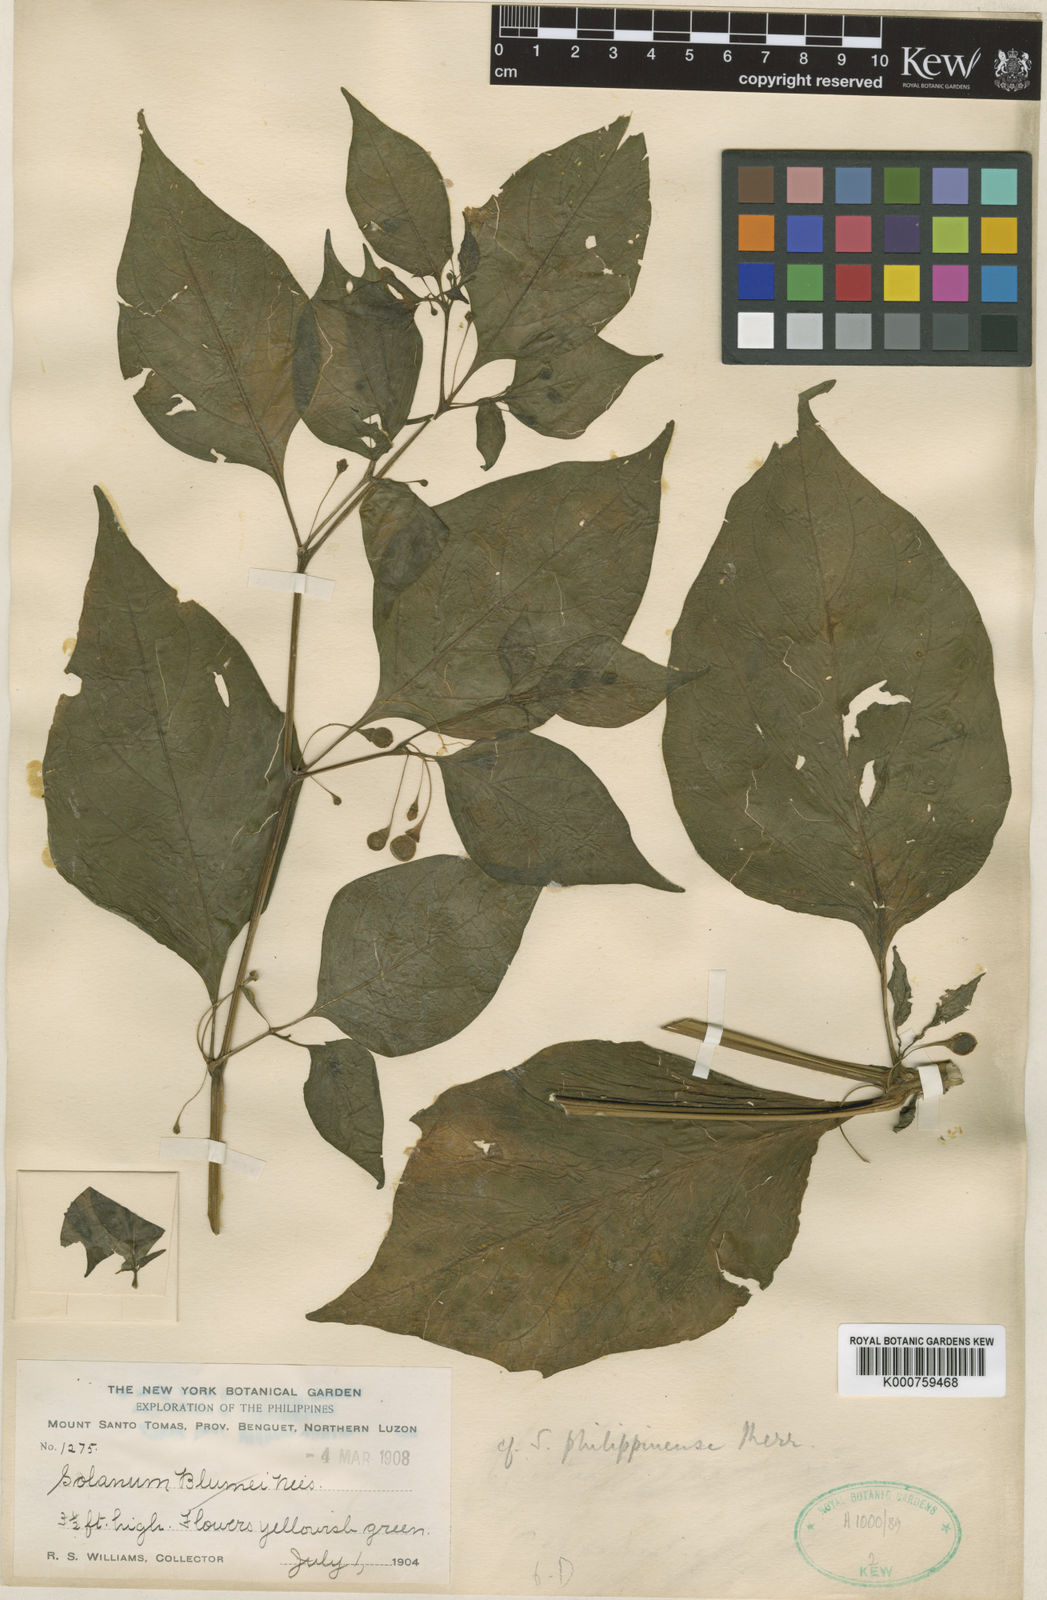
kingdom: Plantae
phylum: Tracheophyta
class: Magnoliopsida
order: Solanales
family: Solanaceae
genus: Tubocapsicum
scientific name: Tubocapsicum anomalum
